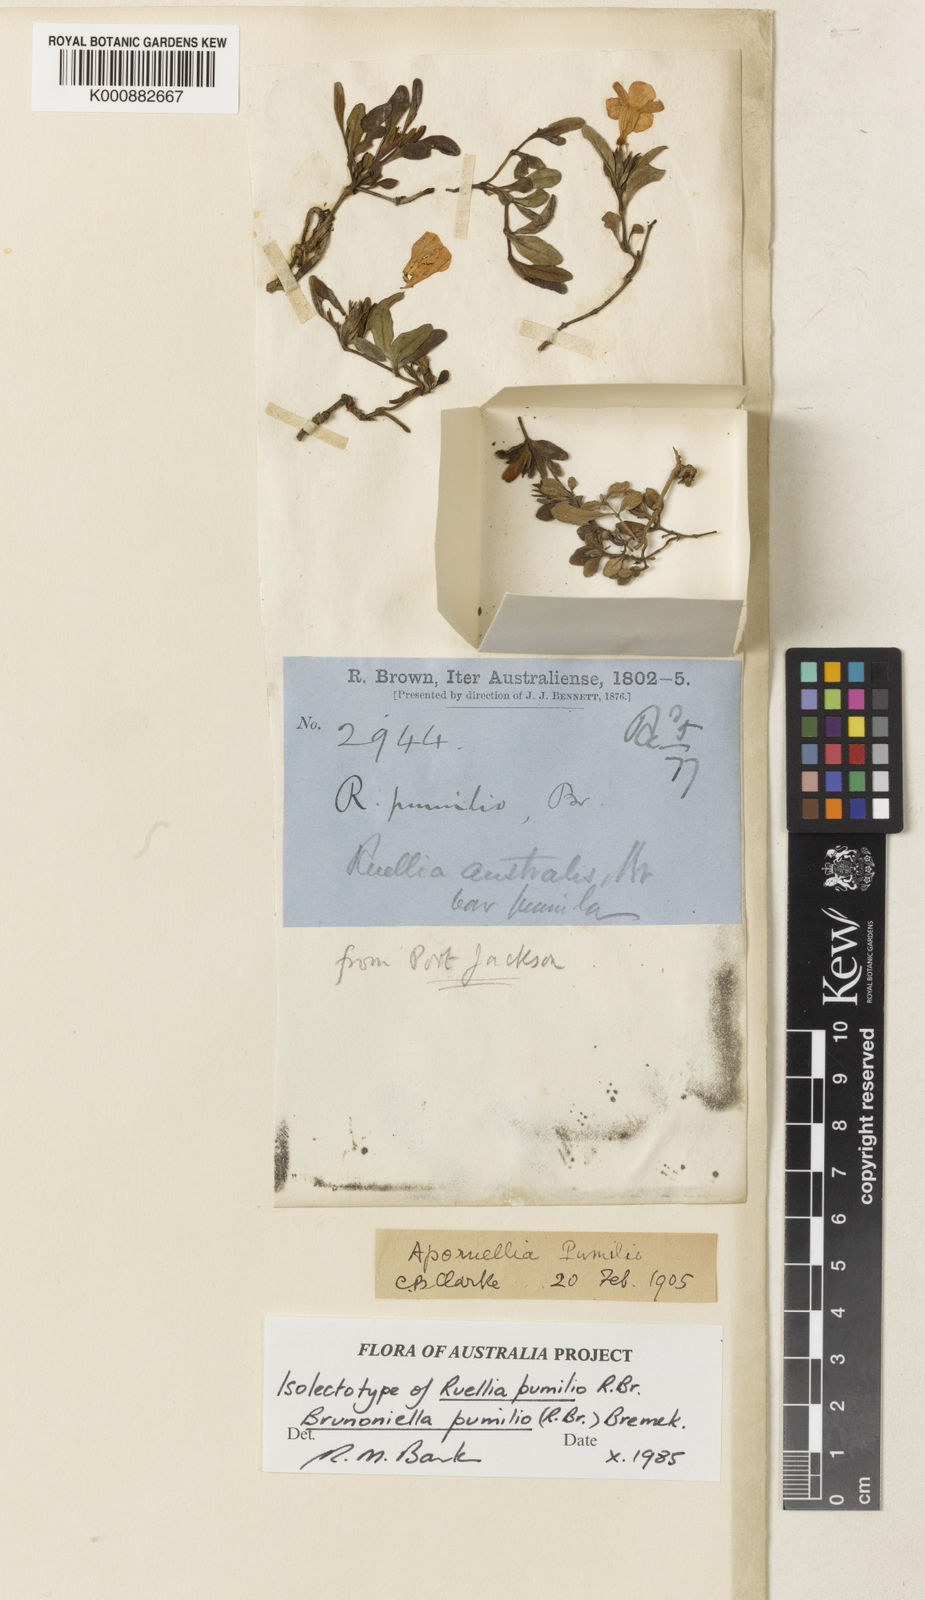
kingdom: Plantae
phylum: Tracheophyta
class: Magnoliopsida
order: Lamiales
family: Acanthaceae
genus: Brunoniella
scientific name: Brunoniella pumilio
